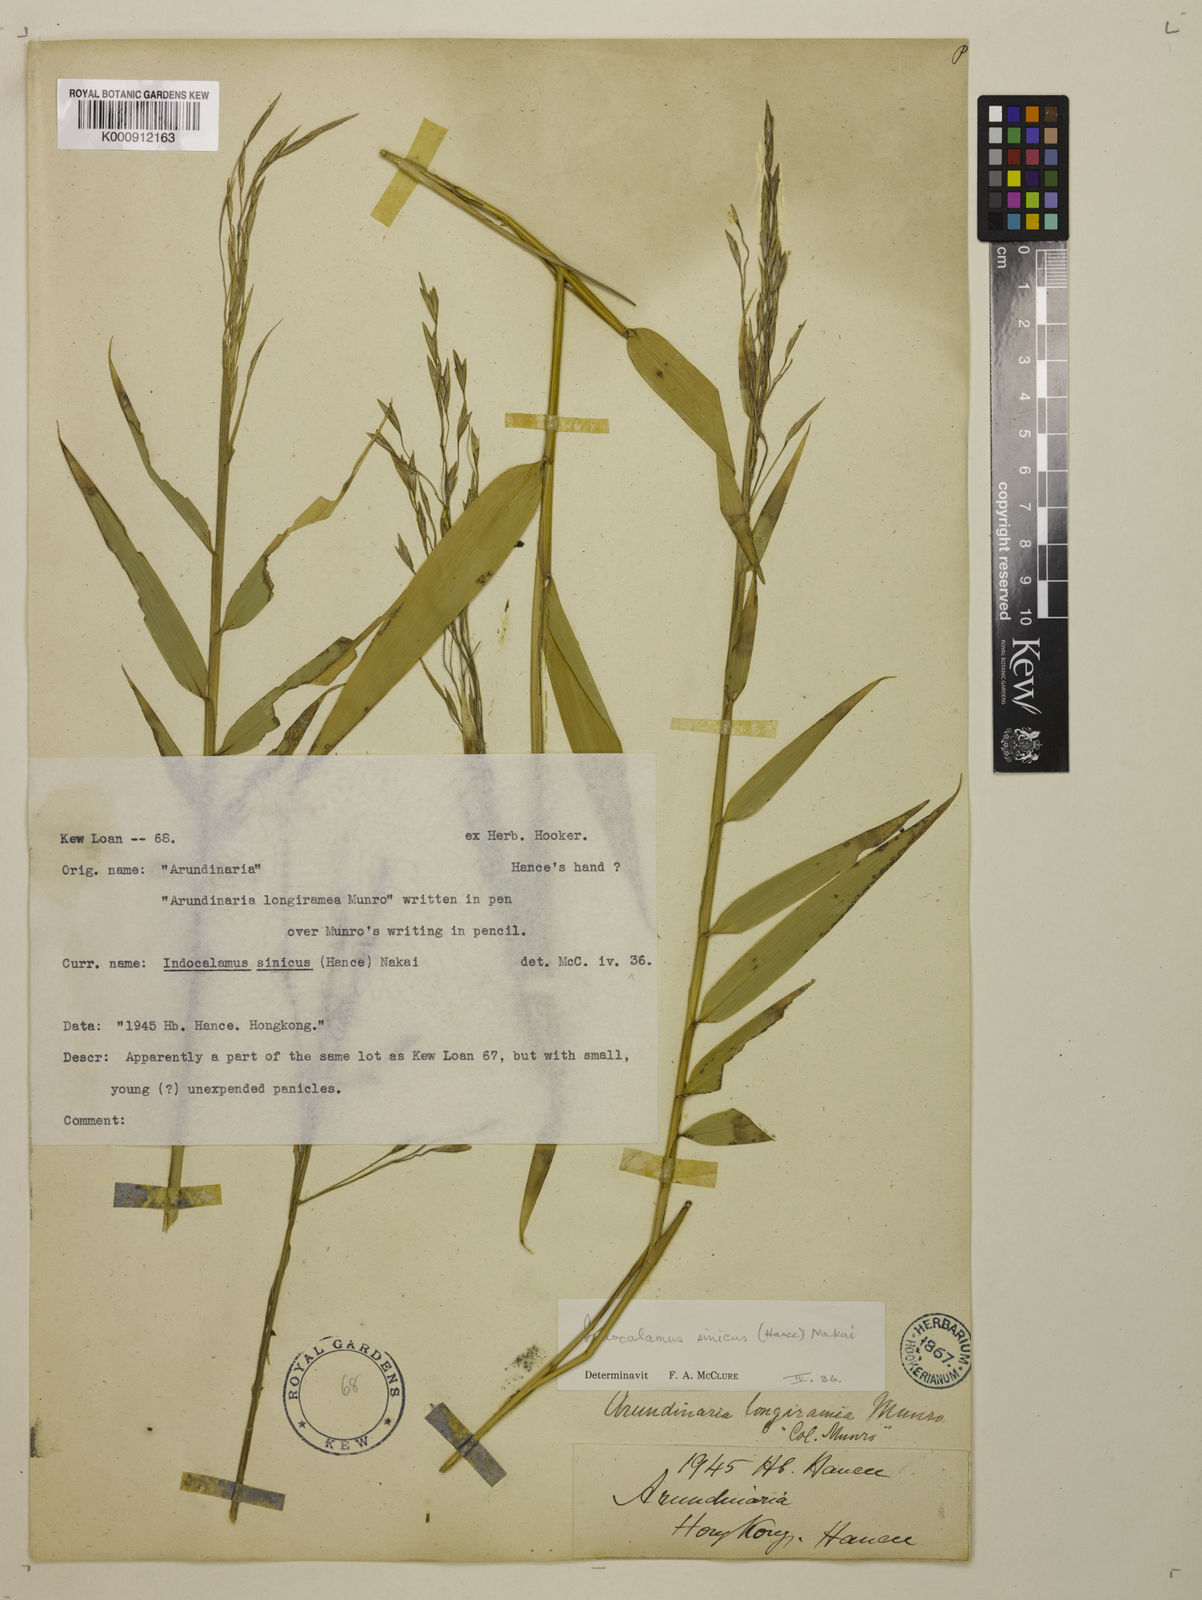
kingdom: Plantae
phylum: Tracheophyta
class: Liliopsida
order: Poales
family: Poaceae
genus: Indocalamus
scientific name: Indocalamus sinicus
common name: Chinese cane
